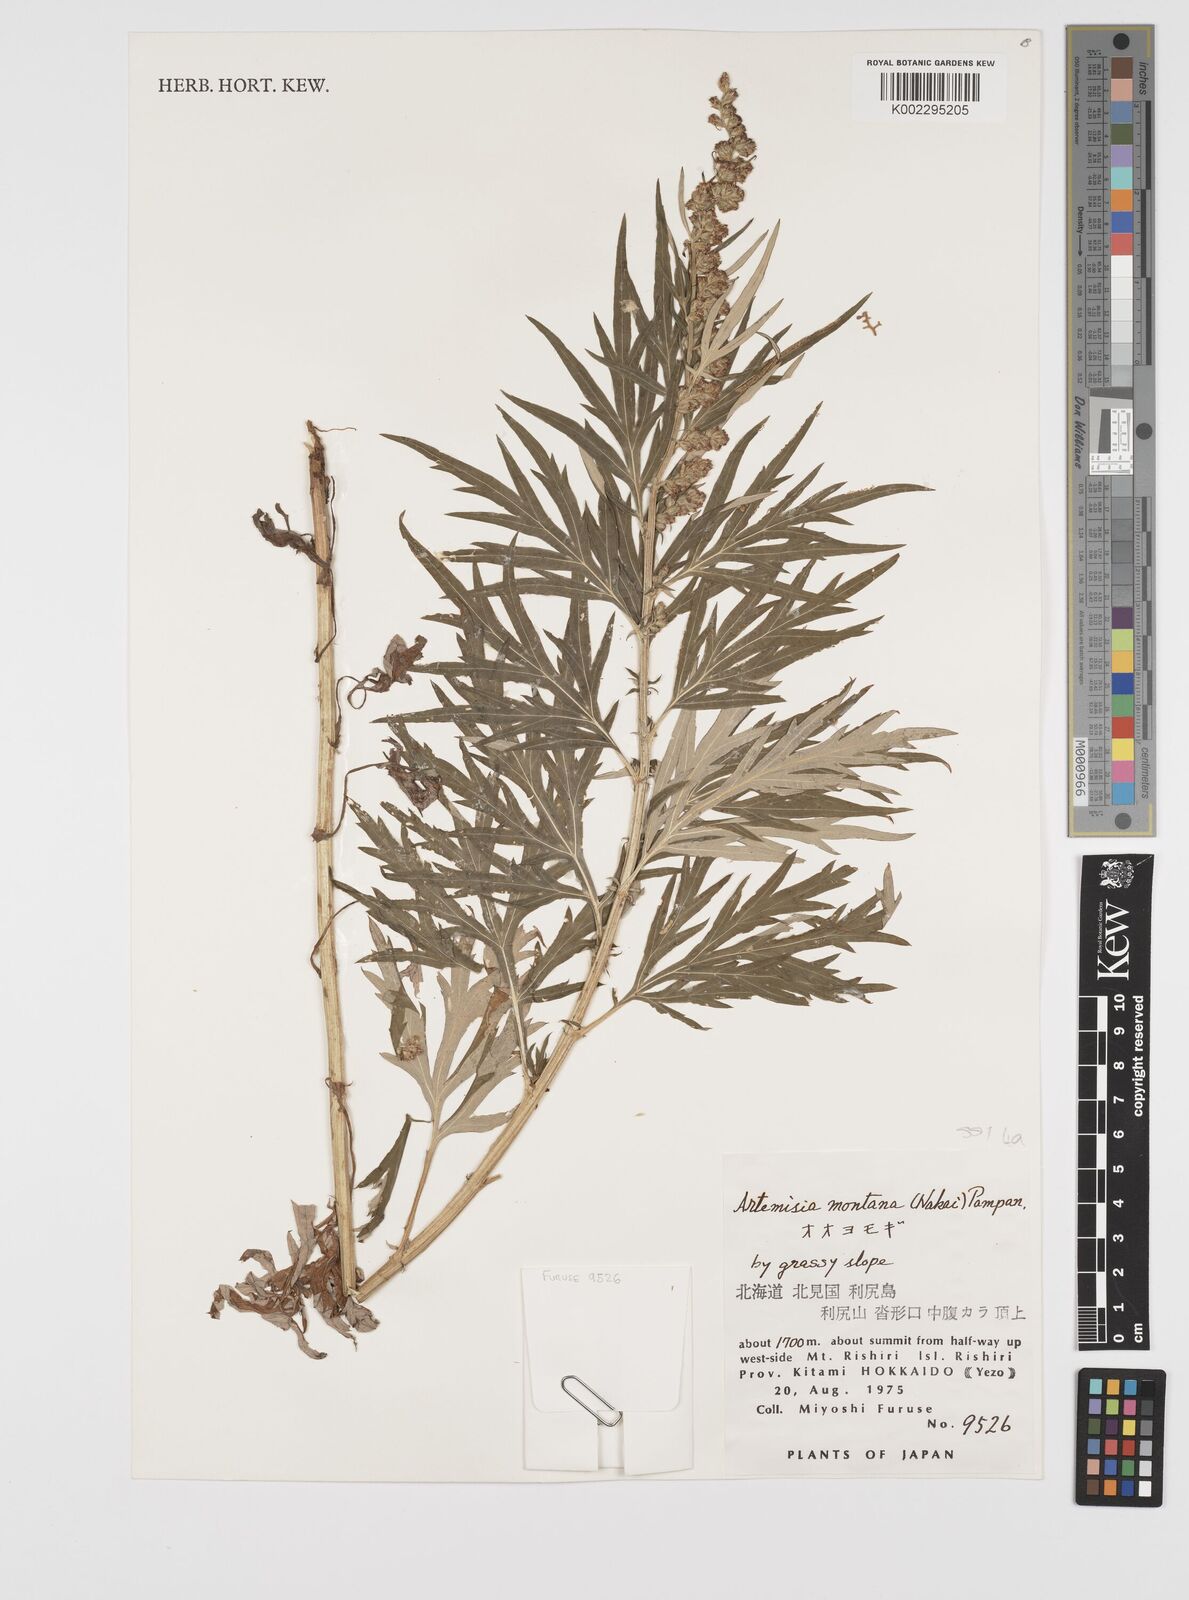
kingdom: Plantae
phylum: Tracheophyta
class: Magnoliopsida
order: Asterales
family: Asteraceae
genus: Artemisia
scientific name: Artemisia montana
